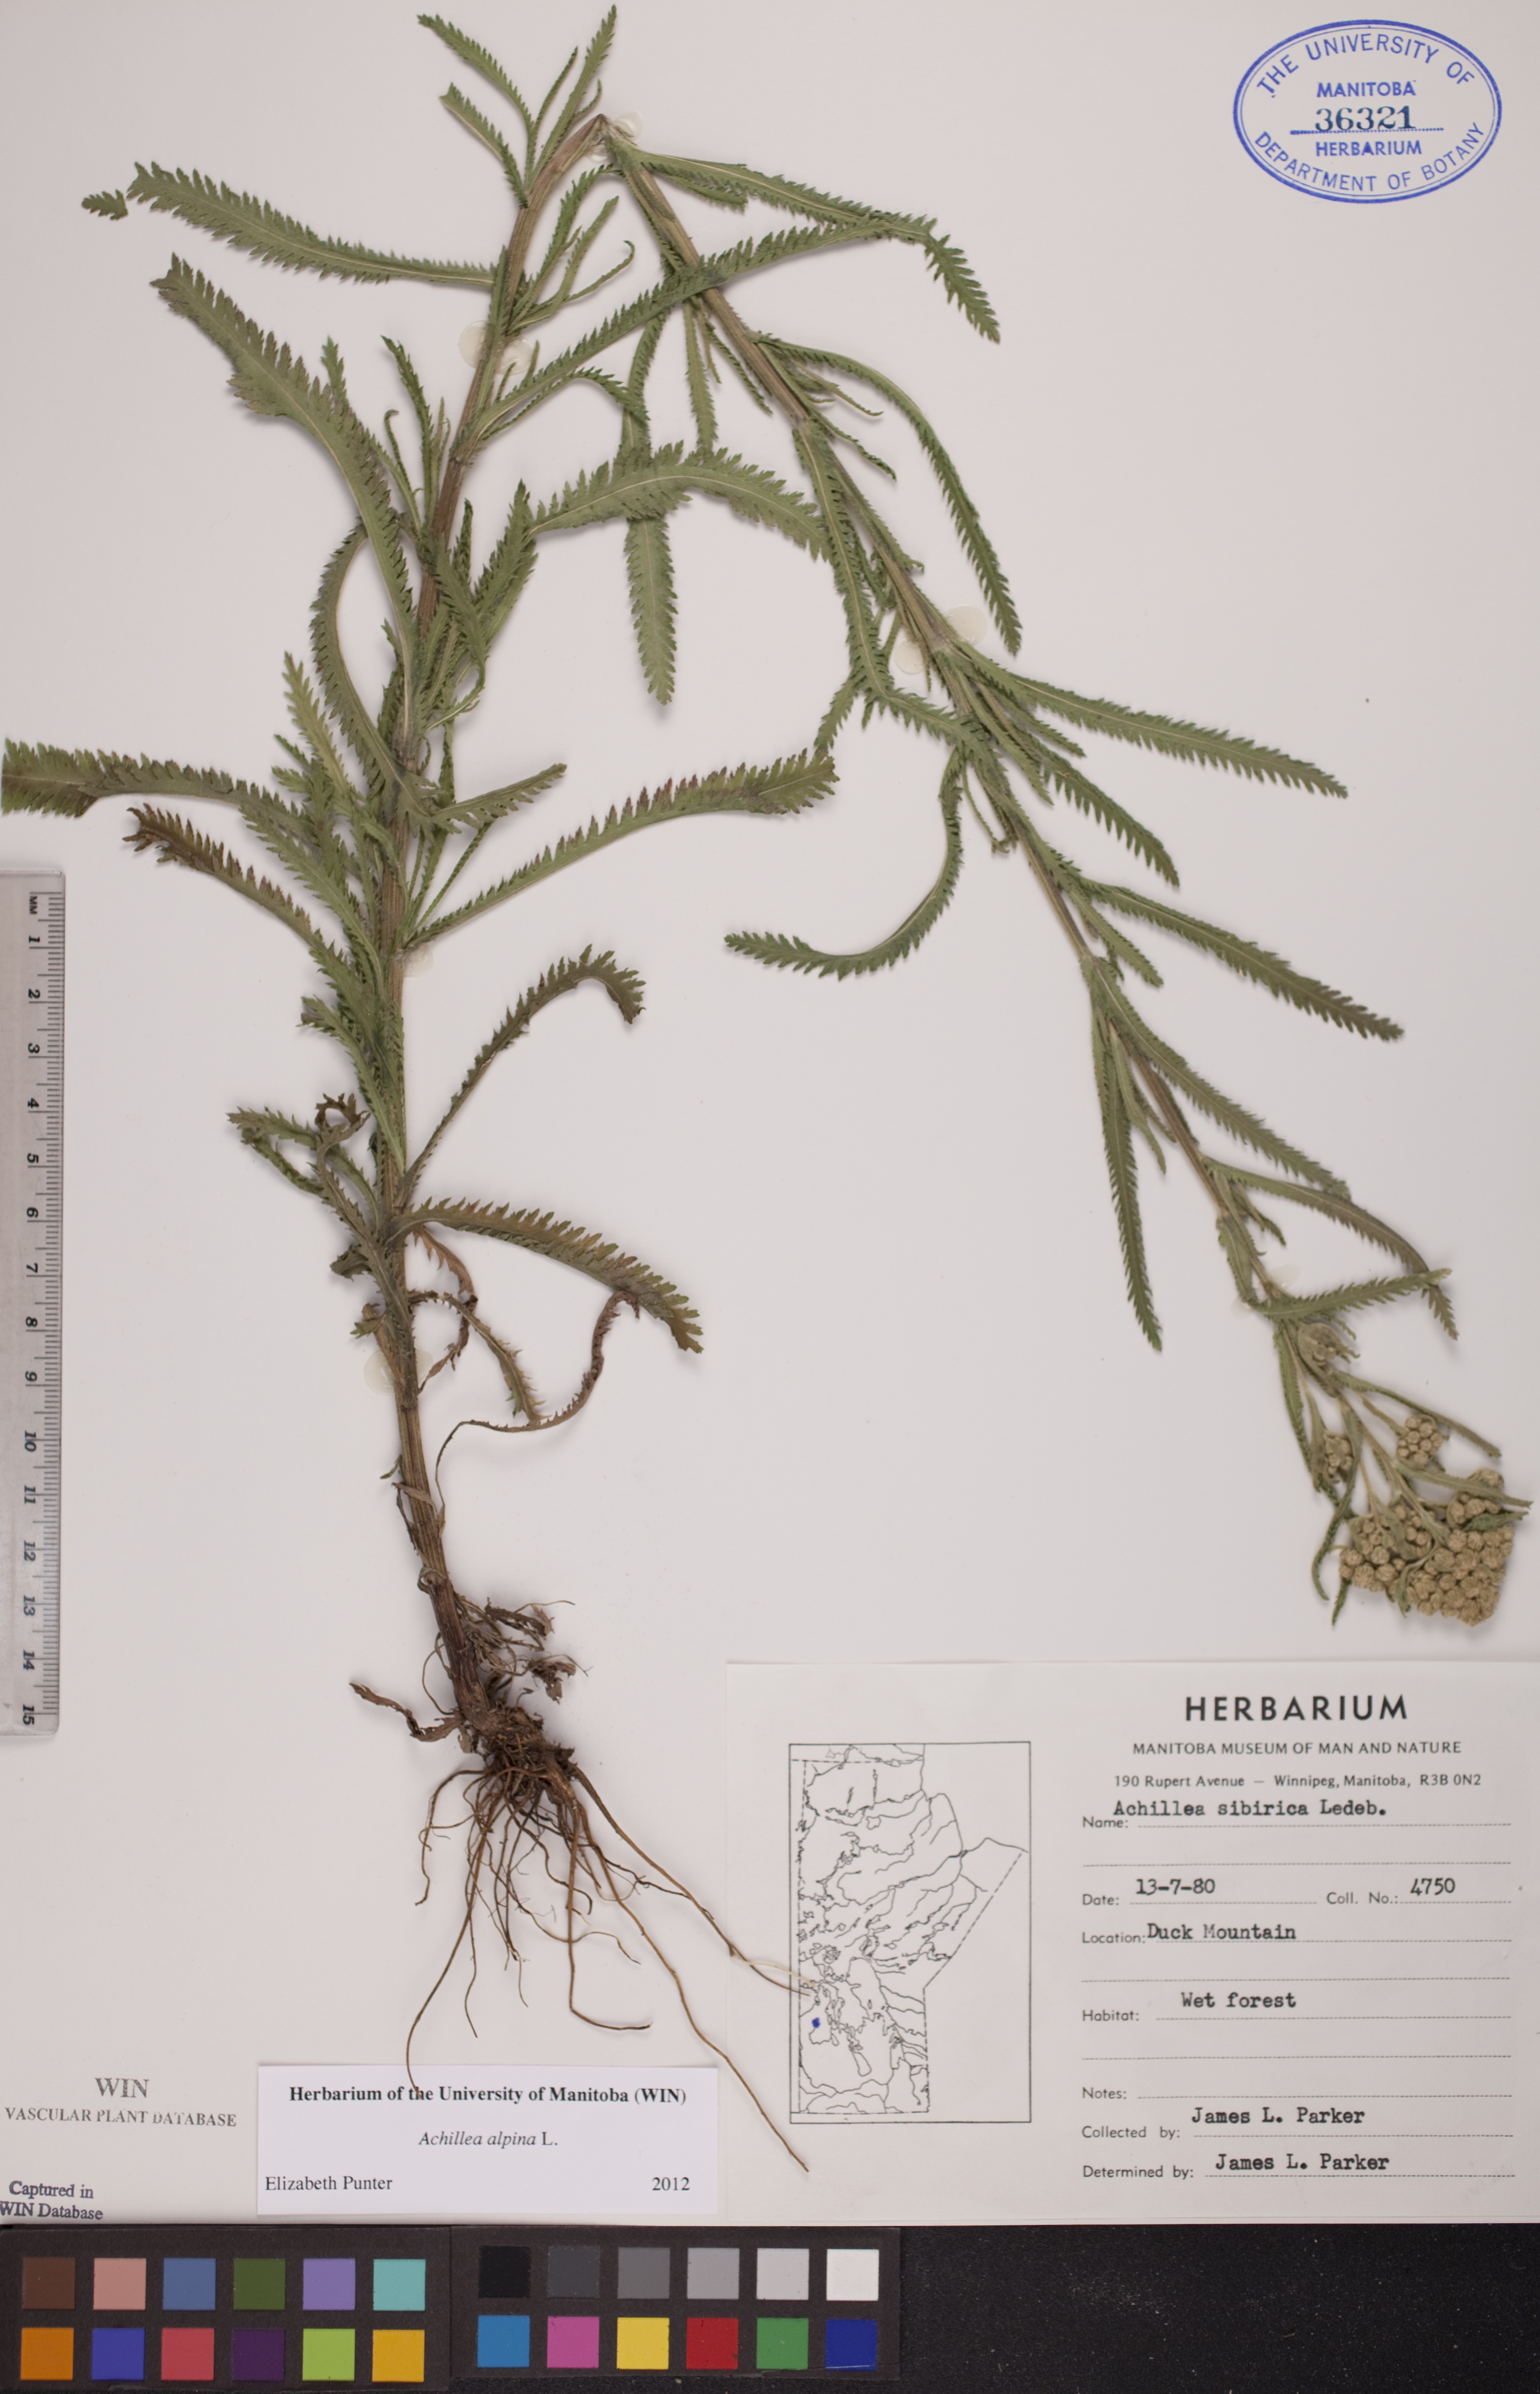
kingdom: Plantae
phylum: Tracheophyta
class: Magnoliopsida
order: Asterales
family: Asteraceae
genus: Achillea
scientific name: Achillea alpina
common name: Siberian yarrow
